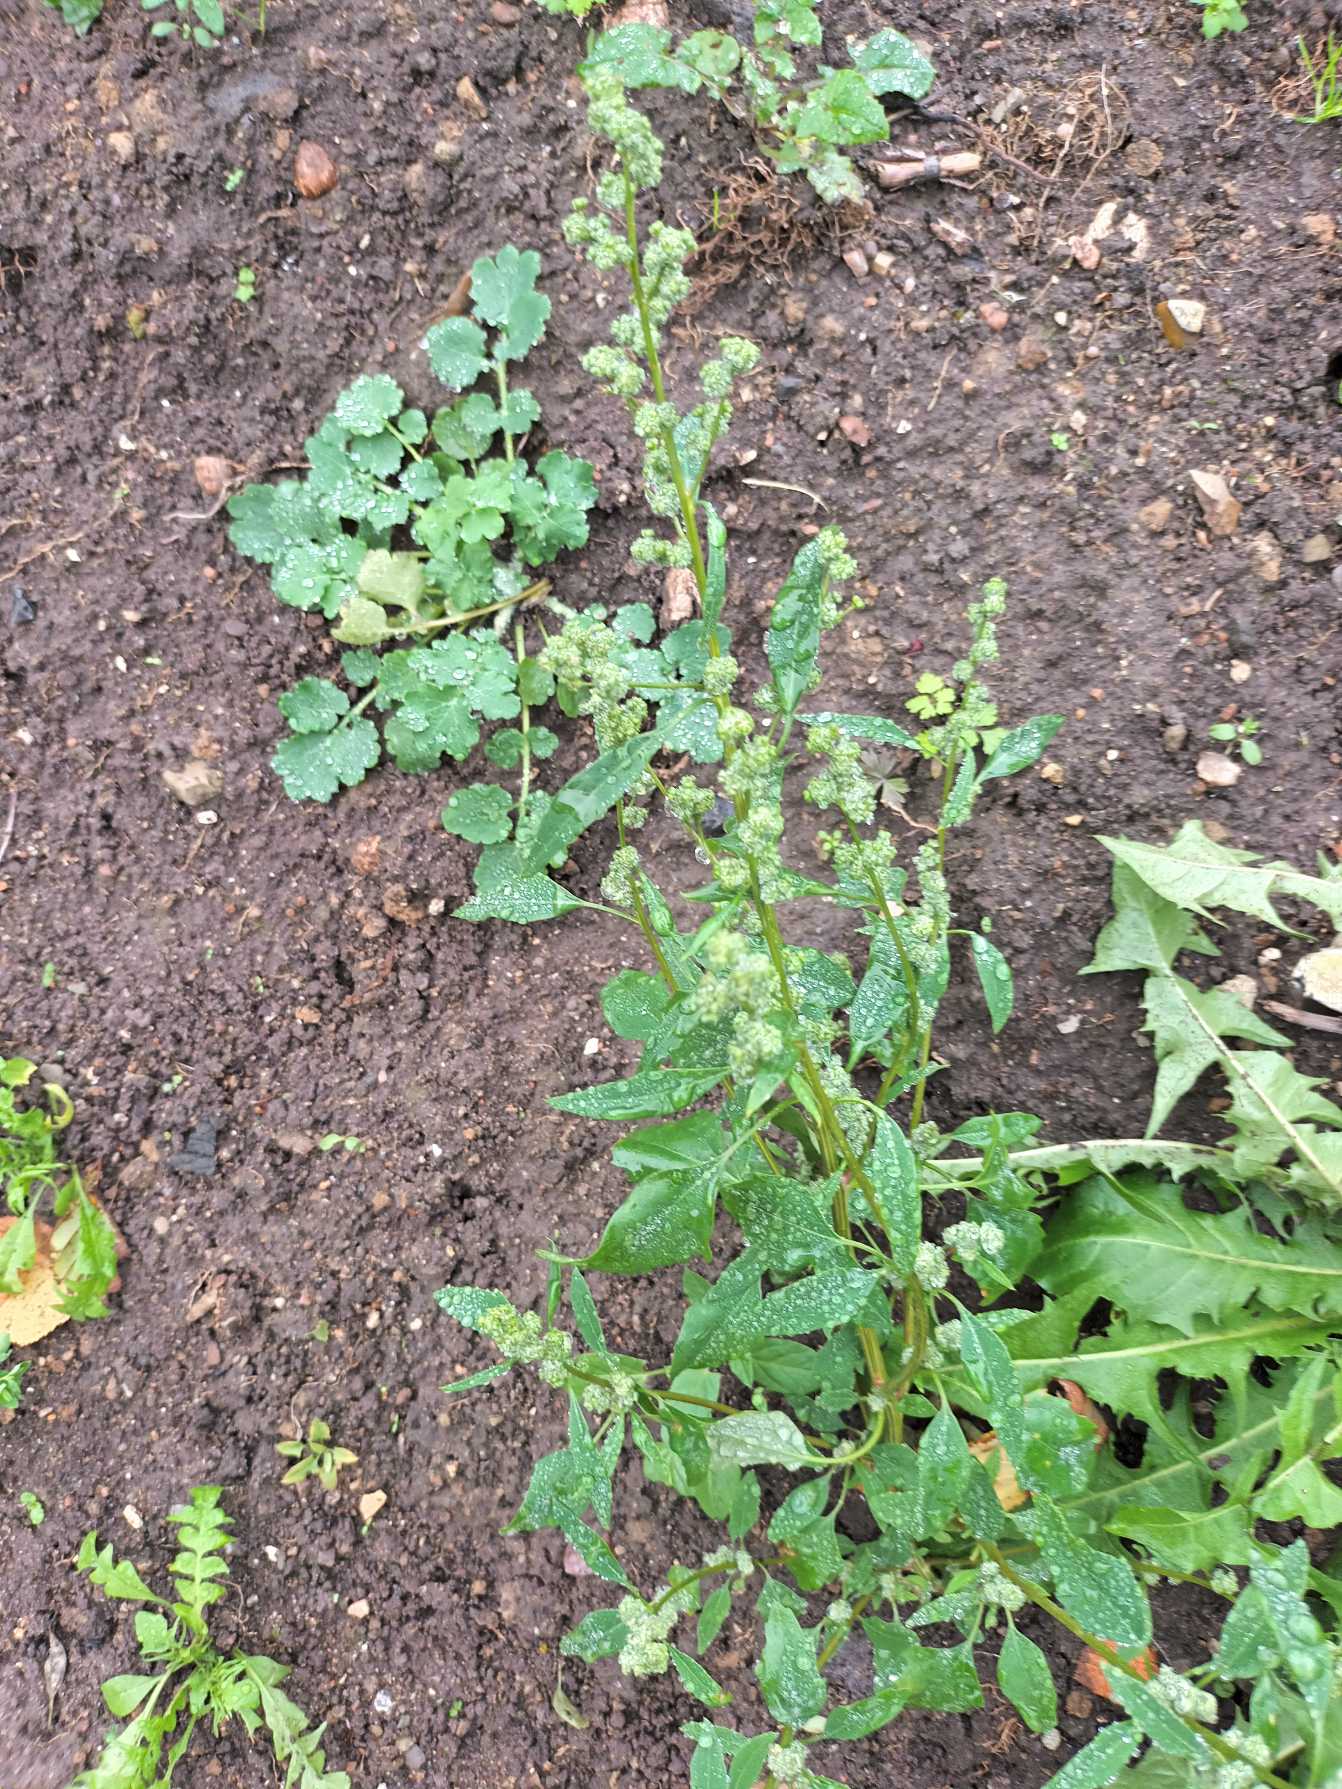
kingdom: Plantae
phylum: Tracheophyta
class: Magnoliopsida
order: Caryophyllales
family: Amaranthaceae
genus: Chenopodium
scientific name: Chenopodium album
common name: Hvidmelet gåsefod
